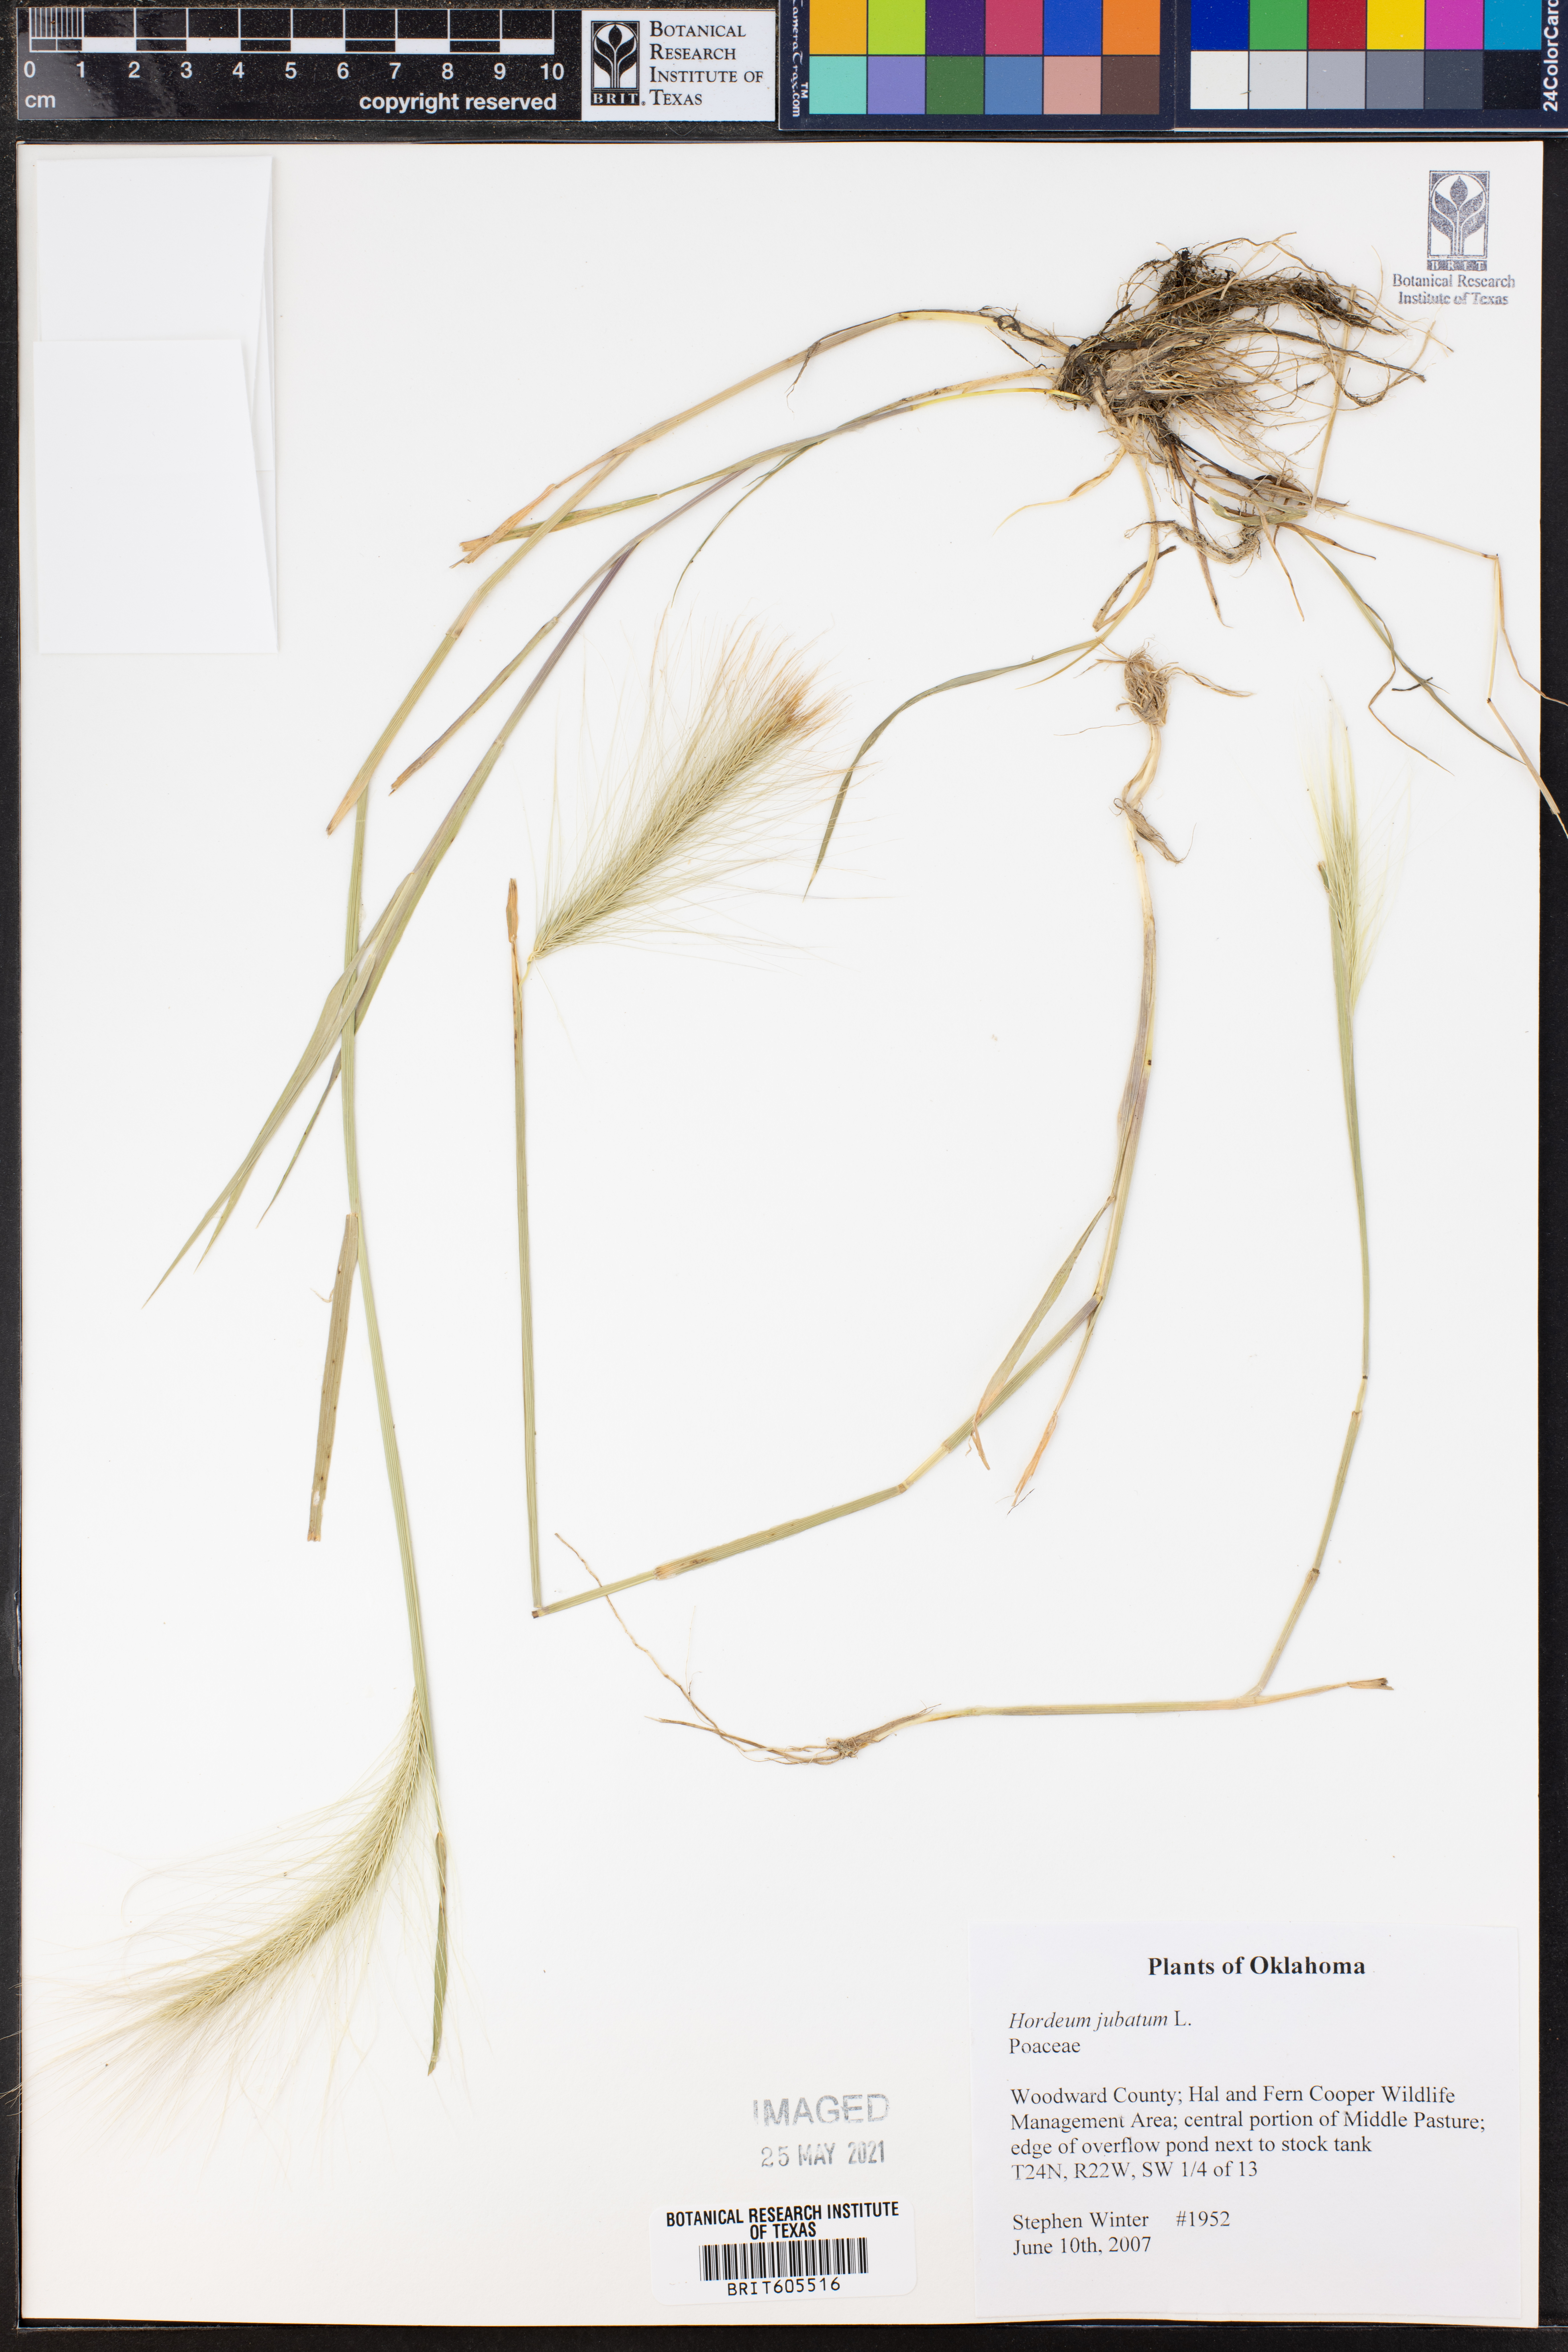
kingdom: Plantae
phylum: Tracheophyta
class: Liliopsida
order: Poales
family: Poaceae
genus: Hordeum
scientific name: Hordeum jubatum
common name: Foxtail barley
